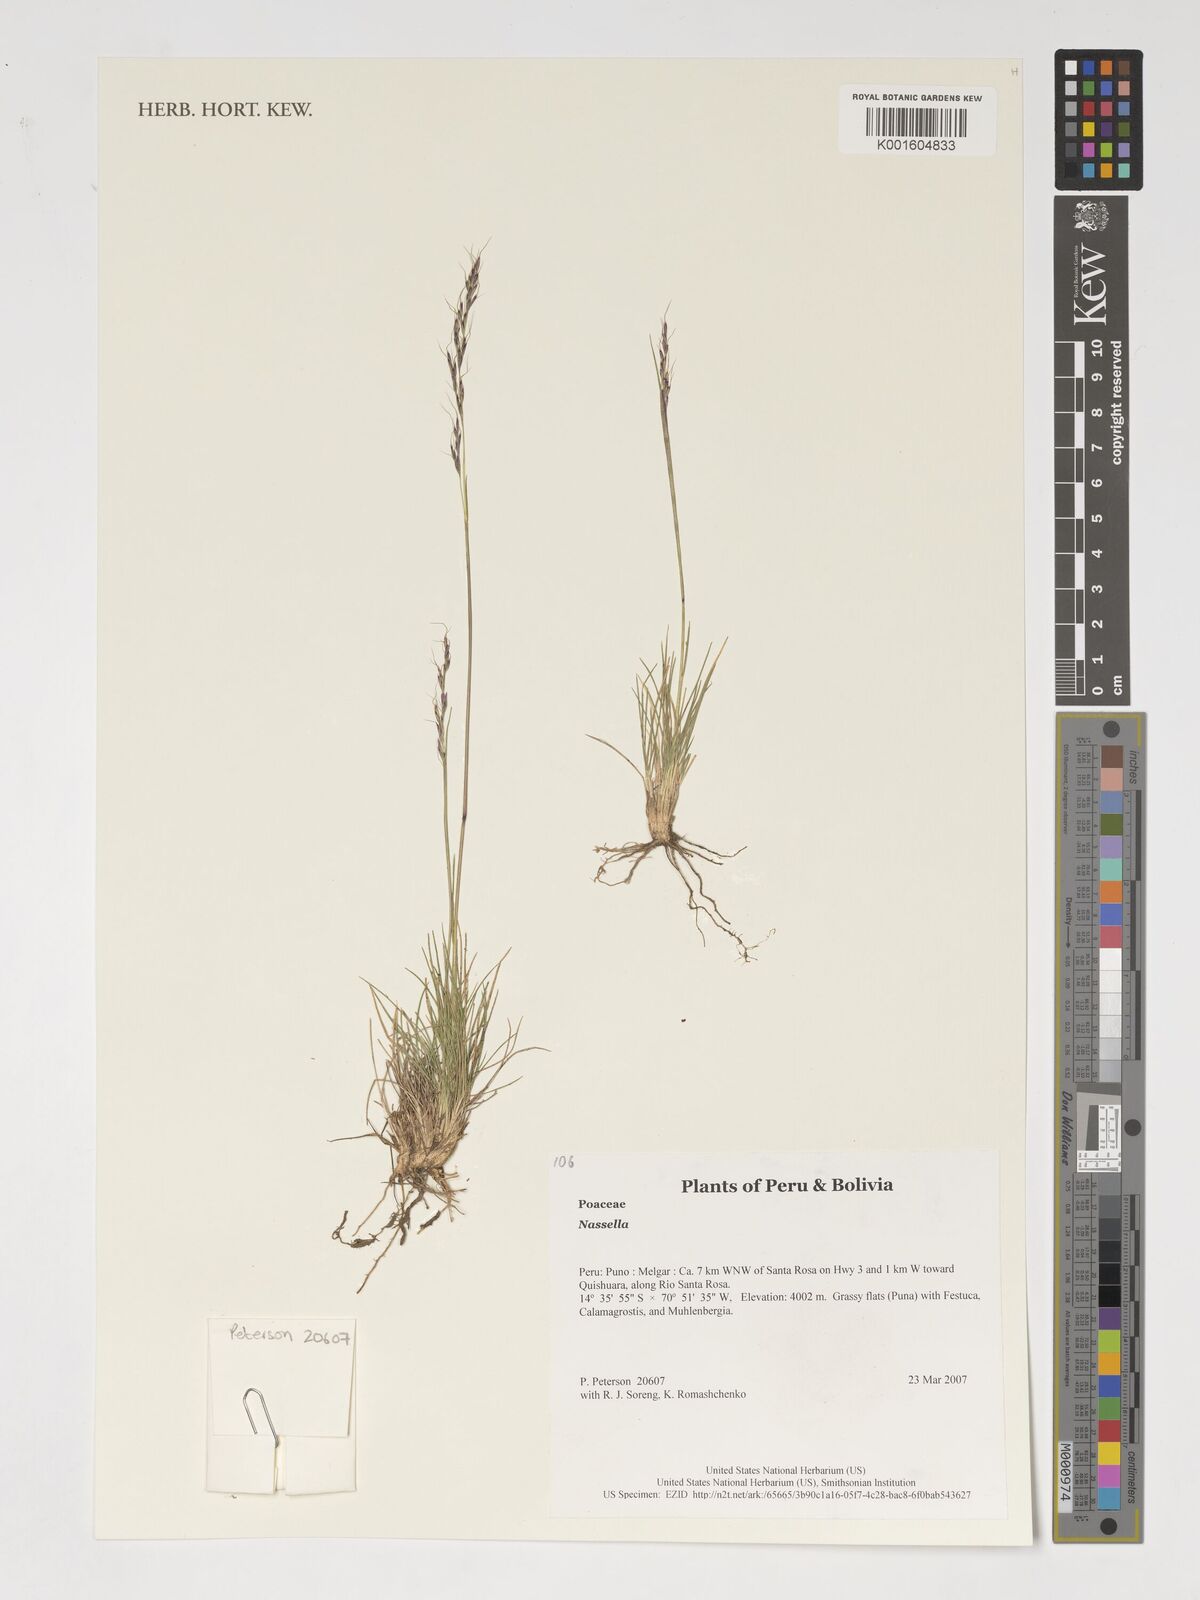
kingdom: Plantae
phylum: Tracheophyta
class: Liliopsida
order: Poales
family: Poaceae
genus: Nassella
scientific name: Nassella
